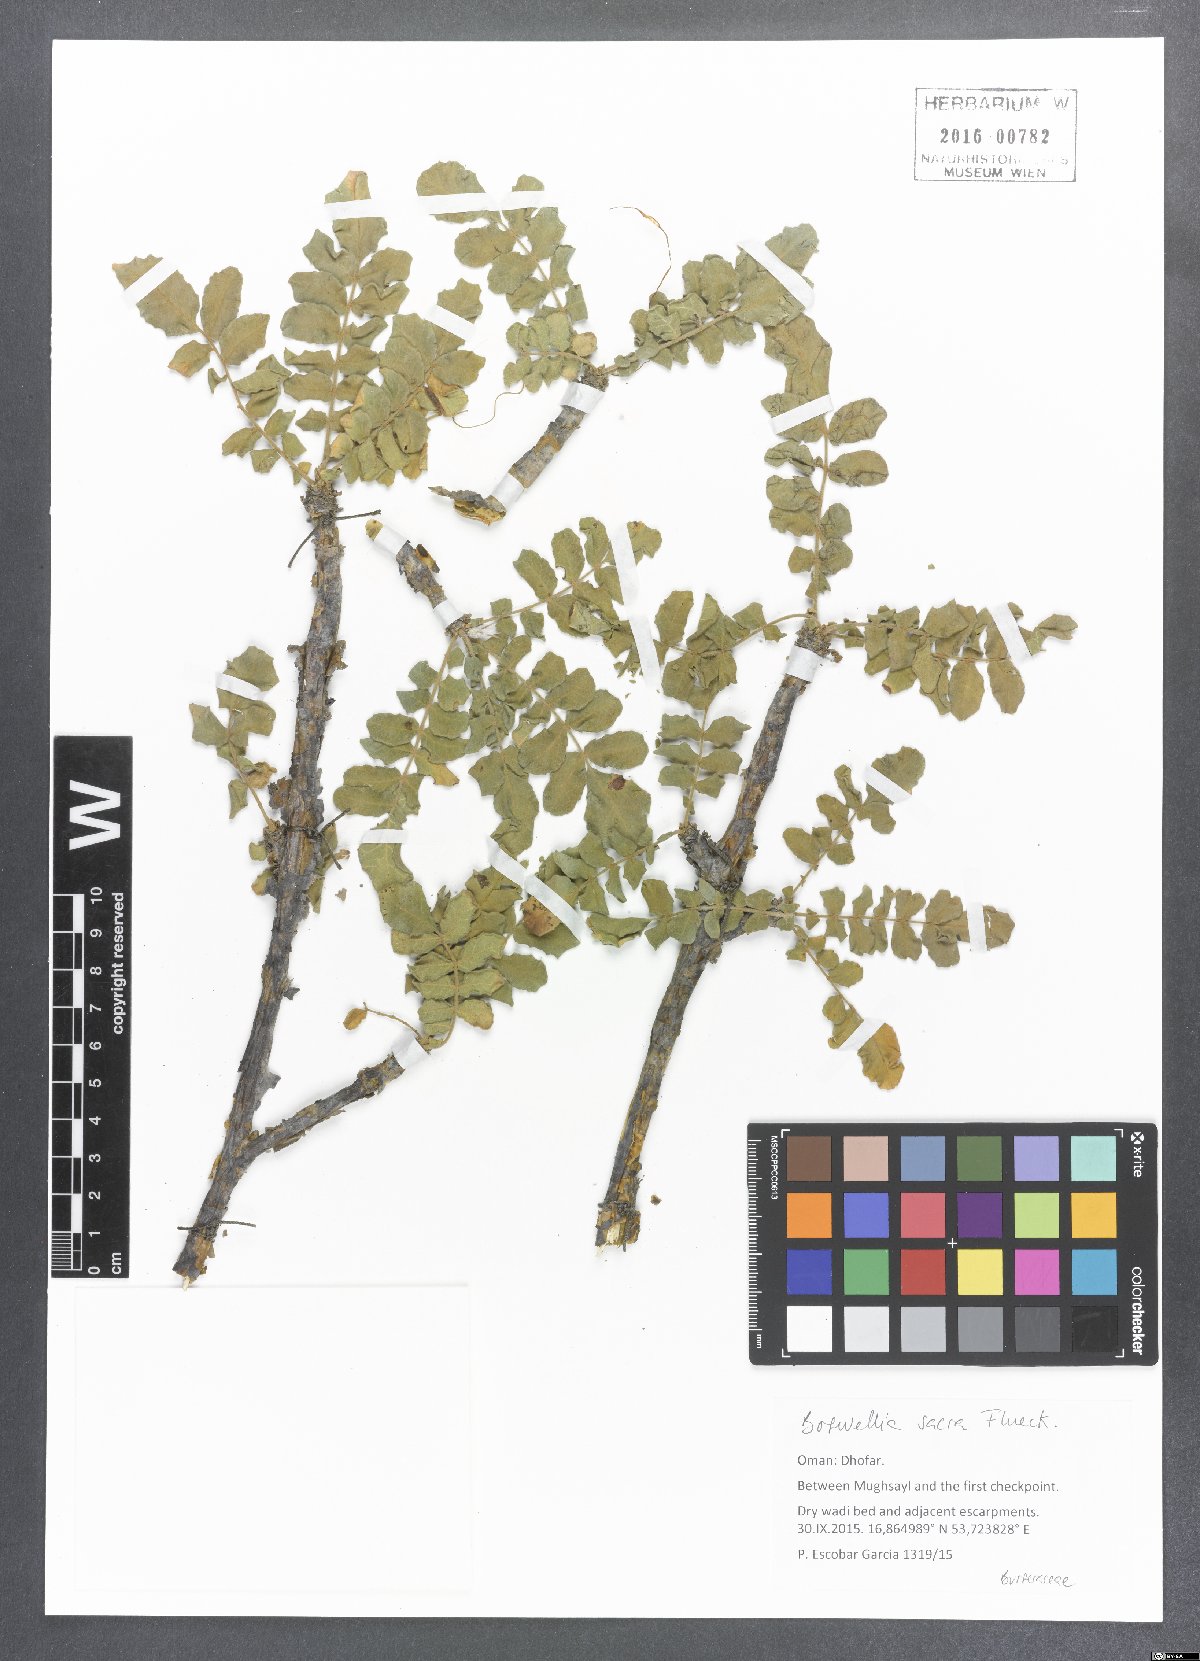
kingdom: Plantae
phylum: Tracheophyta
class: Magnoliopsida
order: Sapindales
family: Burseraceae
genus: Boswellia
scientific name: Boswellia sacra
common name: Olibanum-tree
